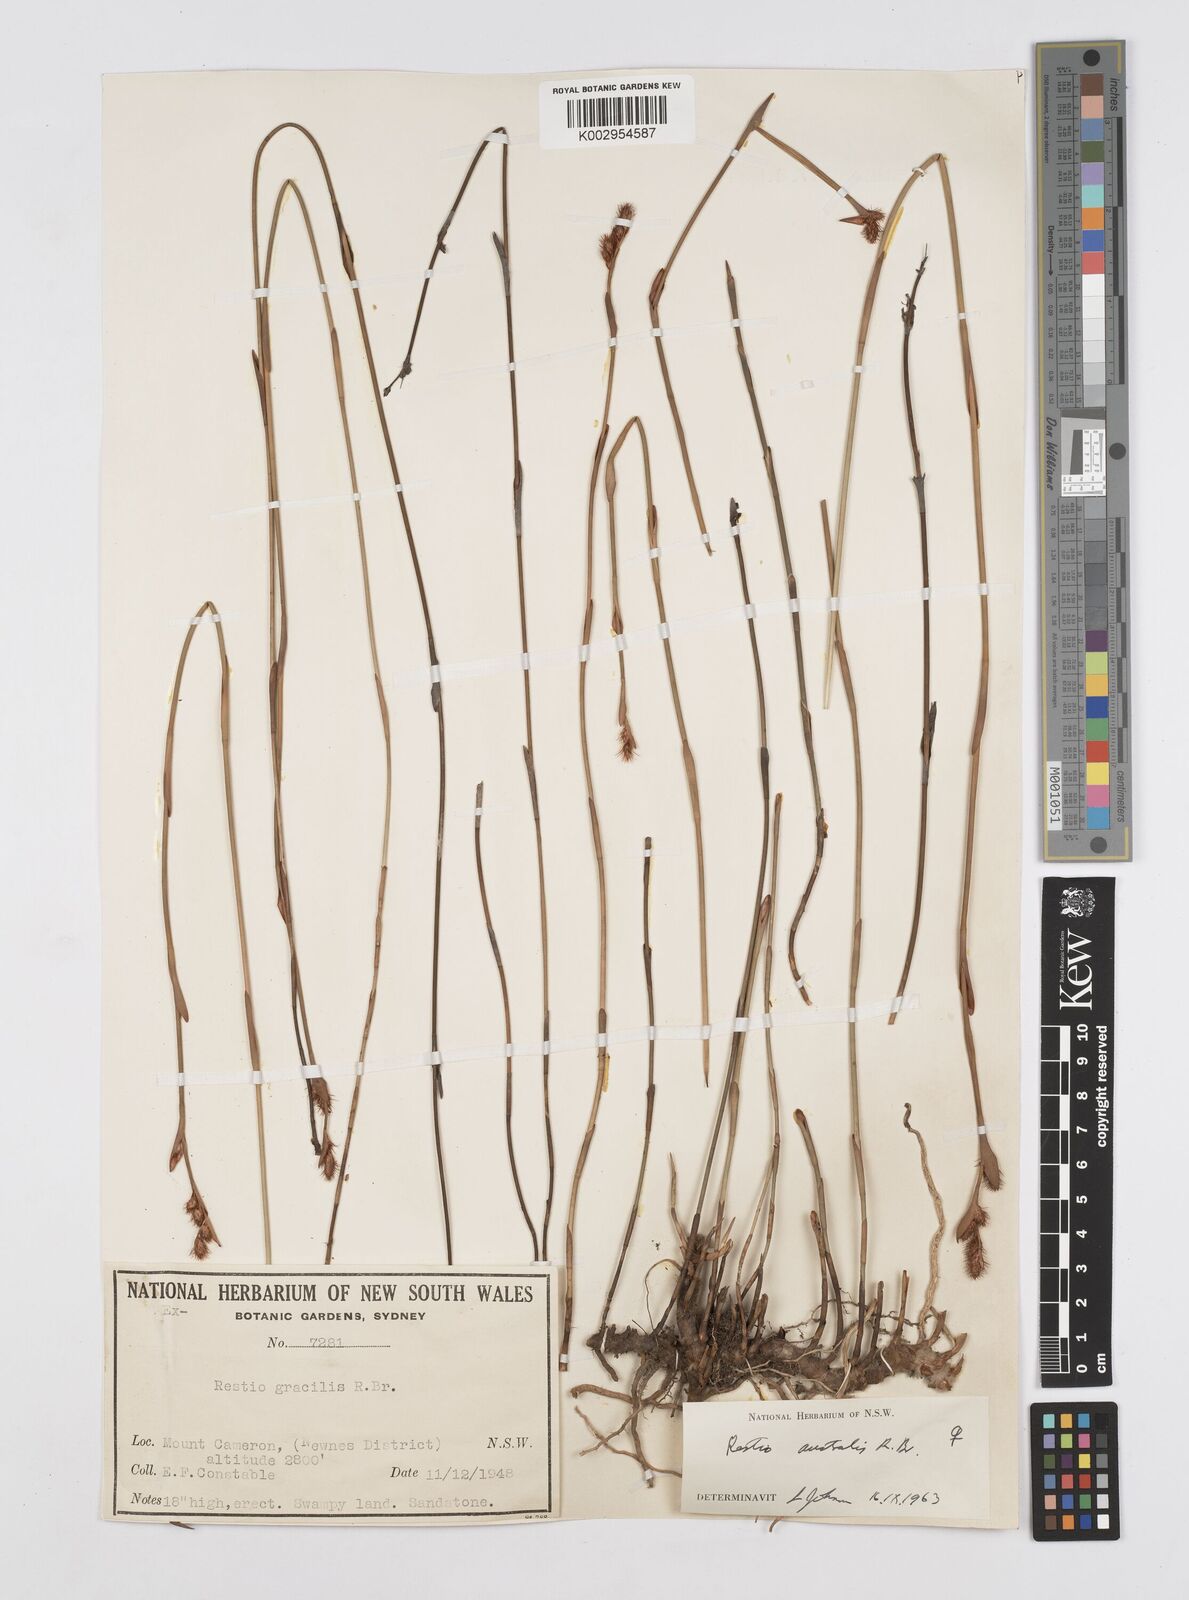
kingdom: Plantae
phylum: Tracheophyta
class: Liliopsida
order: Poales
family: Restionaceae
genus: Baloskion
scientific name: Baloskion australe
